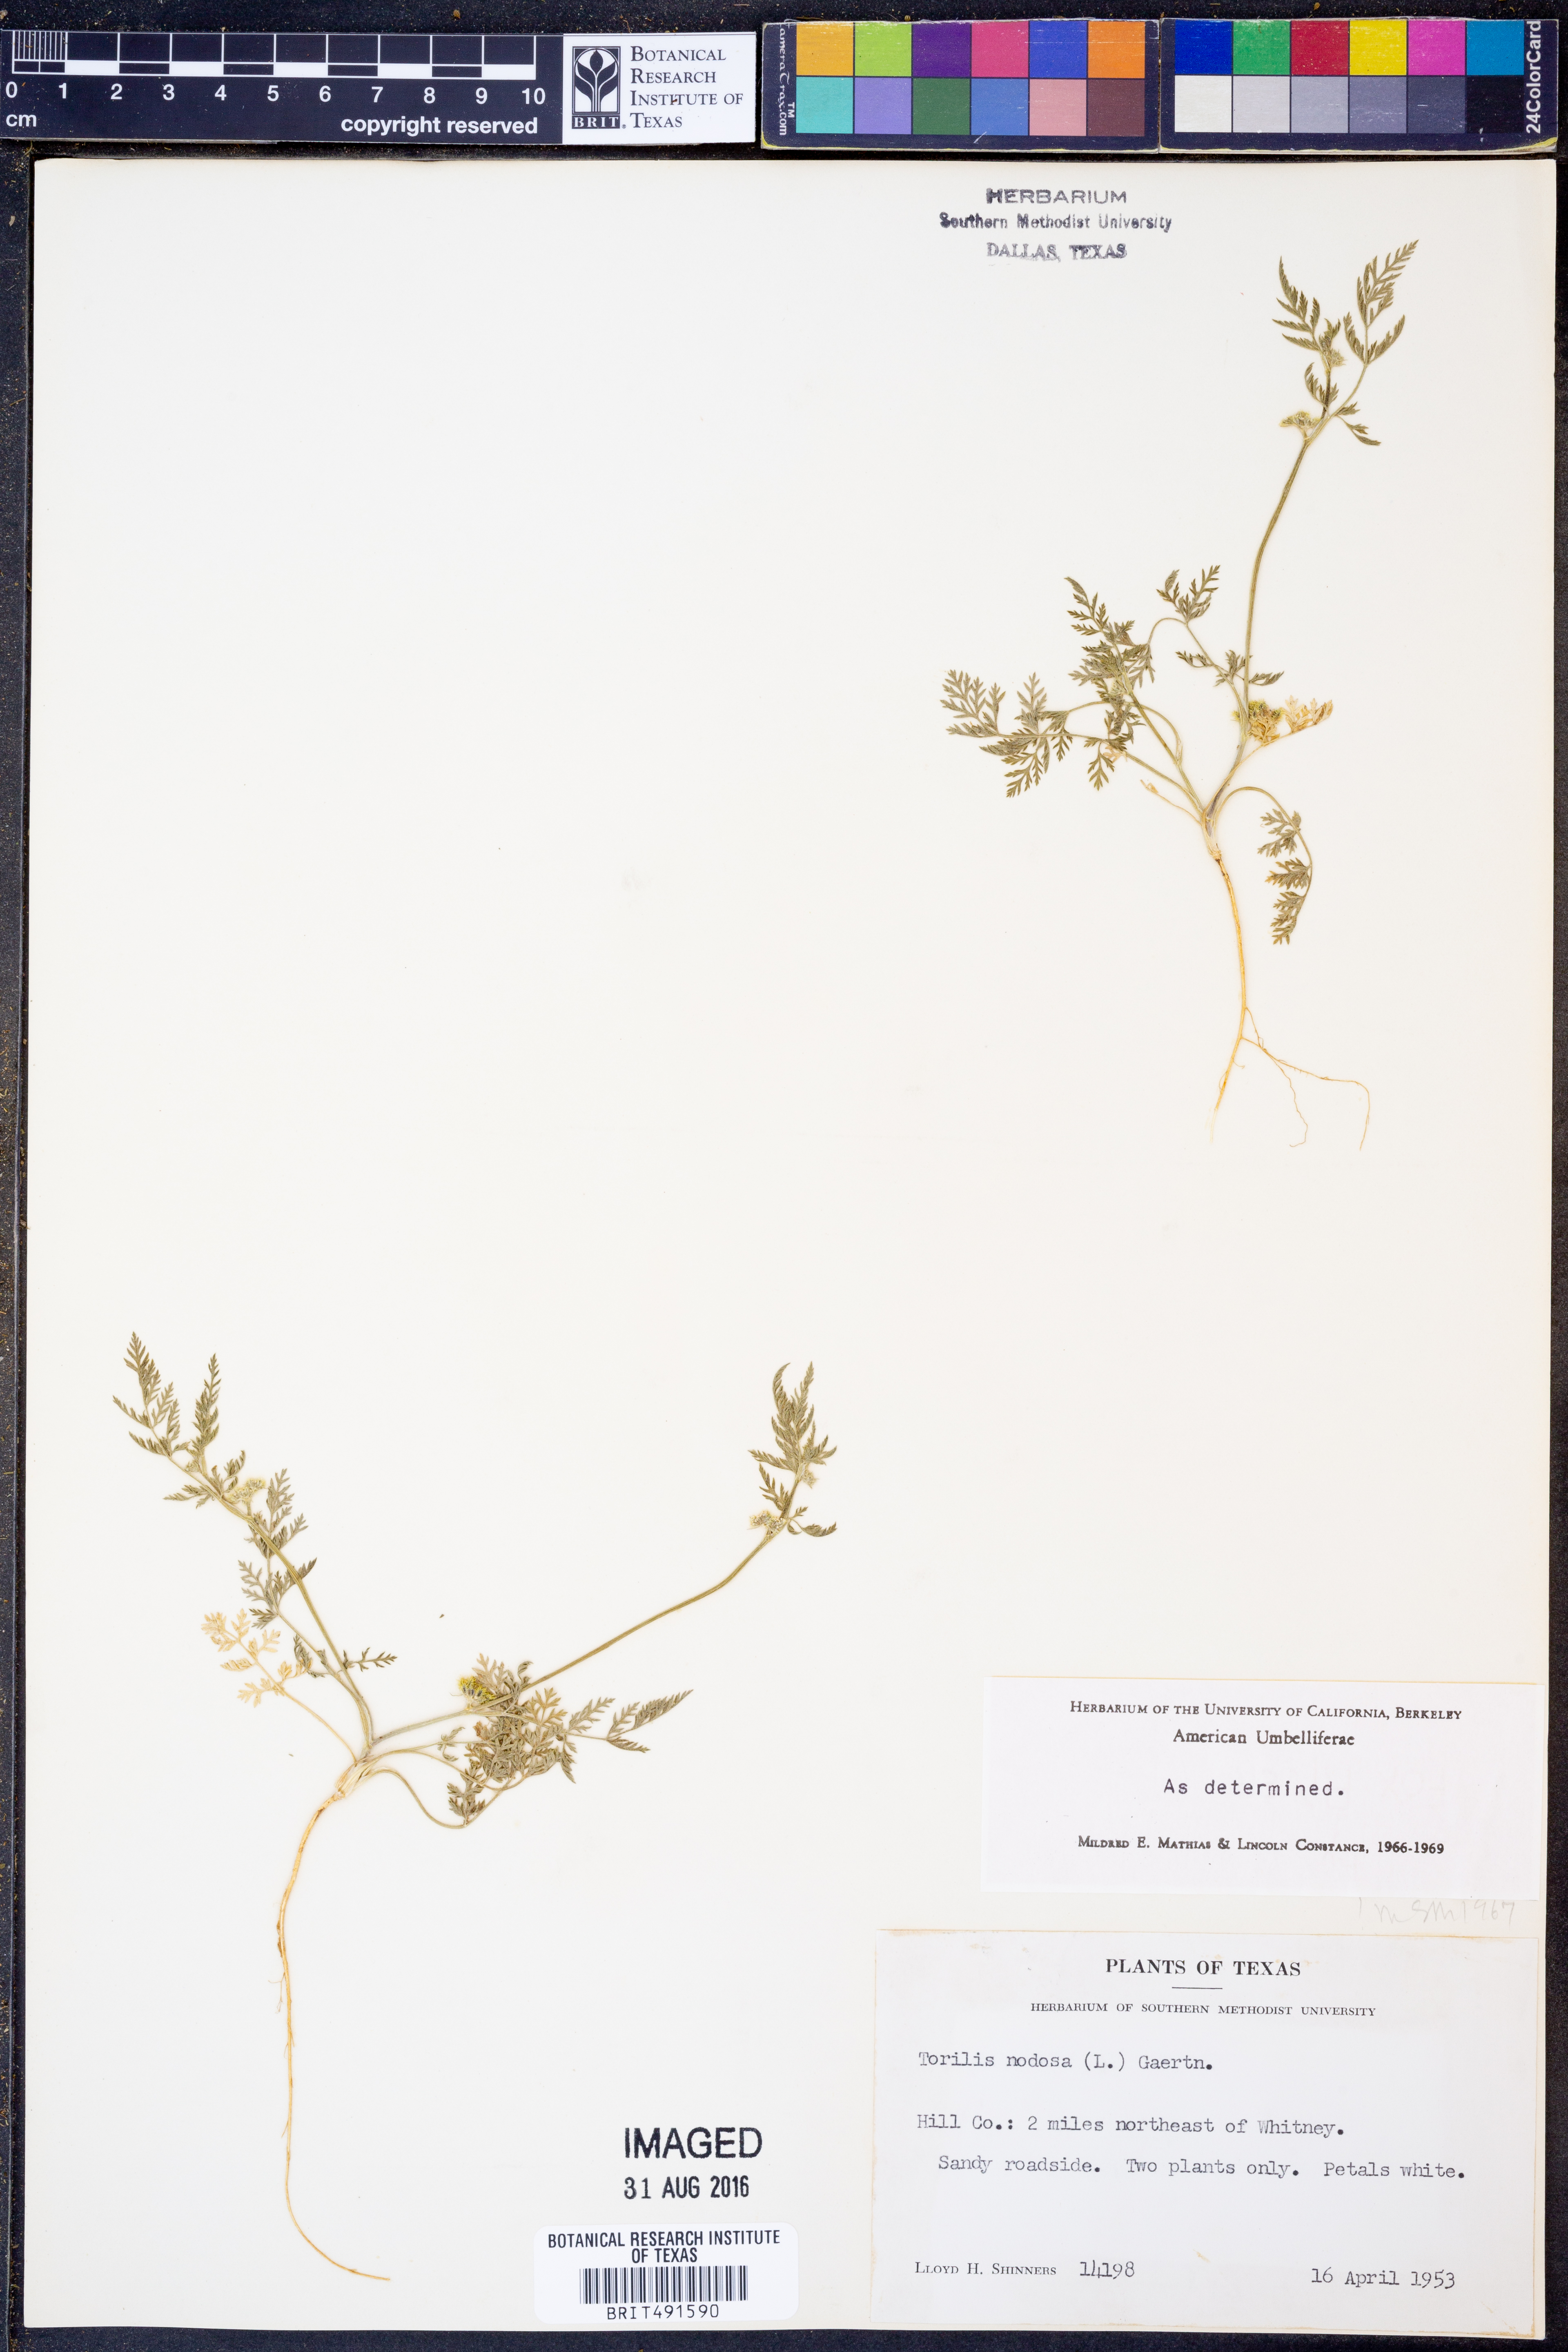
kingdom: Plantae
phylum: Tracheophyta
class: Magnoliopsida
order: Apiales
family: Apiaceae
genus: Torilis
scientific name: Torilis nodosa
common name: Knotted hedge-parsley
